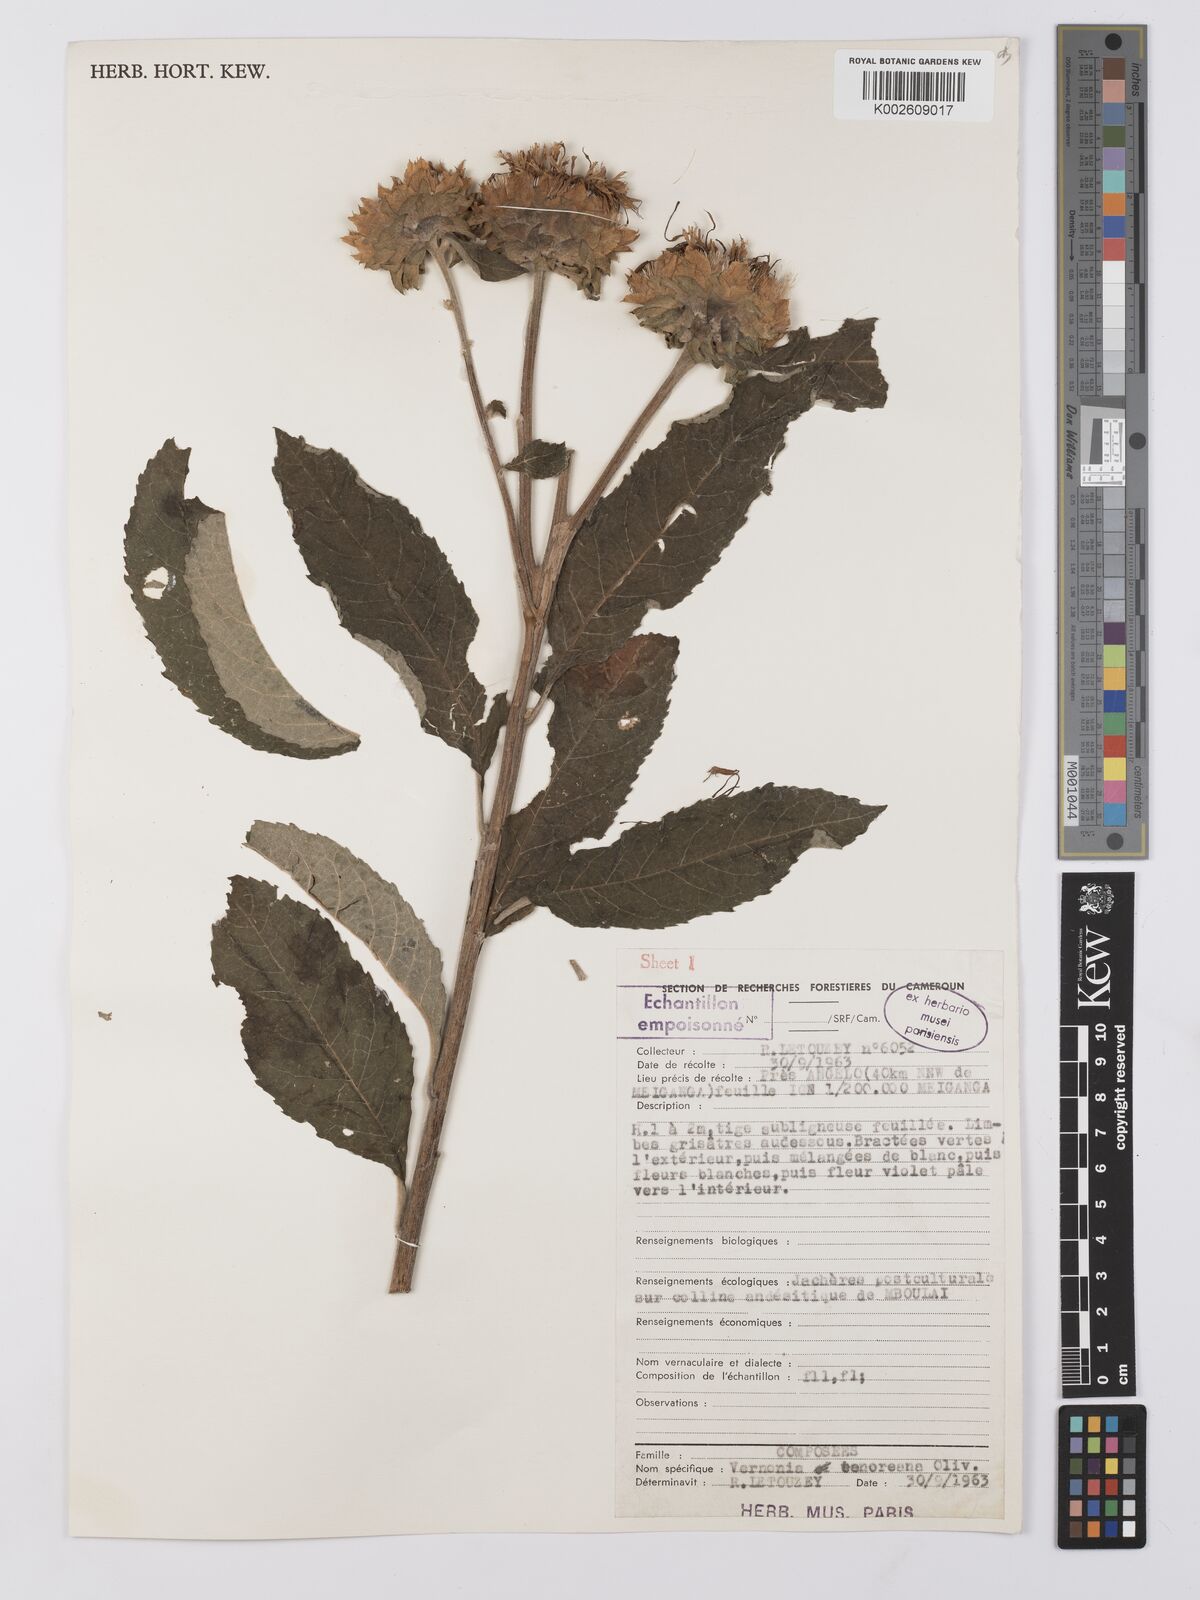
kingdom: Plantae
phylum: Tracheophyta
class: Magnoliopsida
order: Asterales
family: Asteraceae
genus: Baccharoides
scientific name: Baccharoides adoensis
